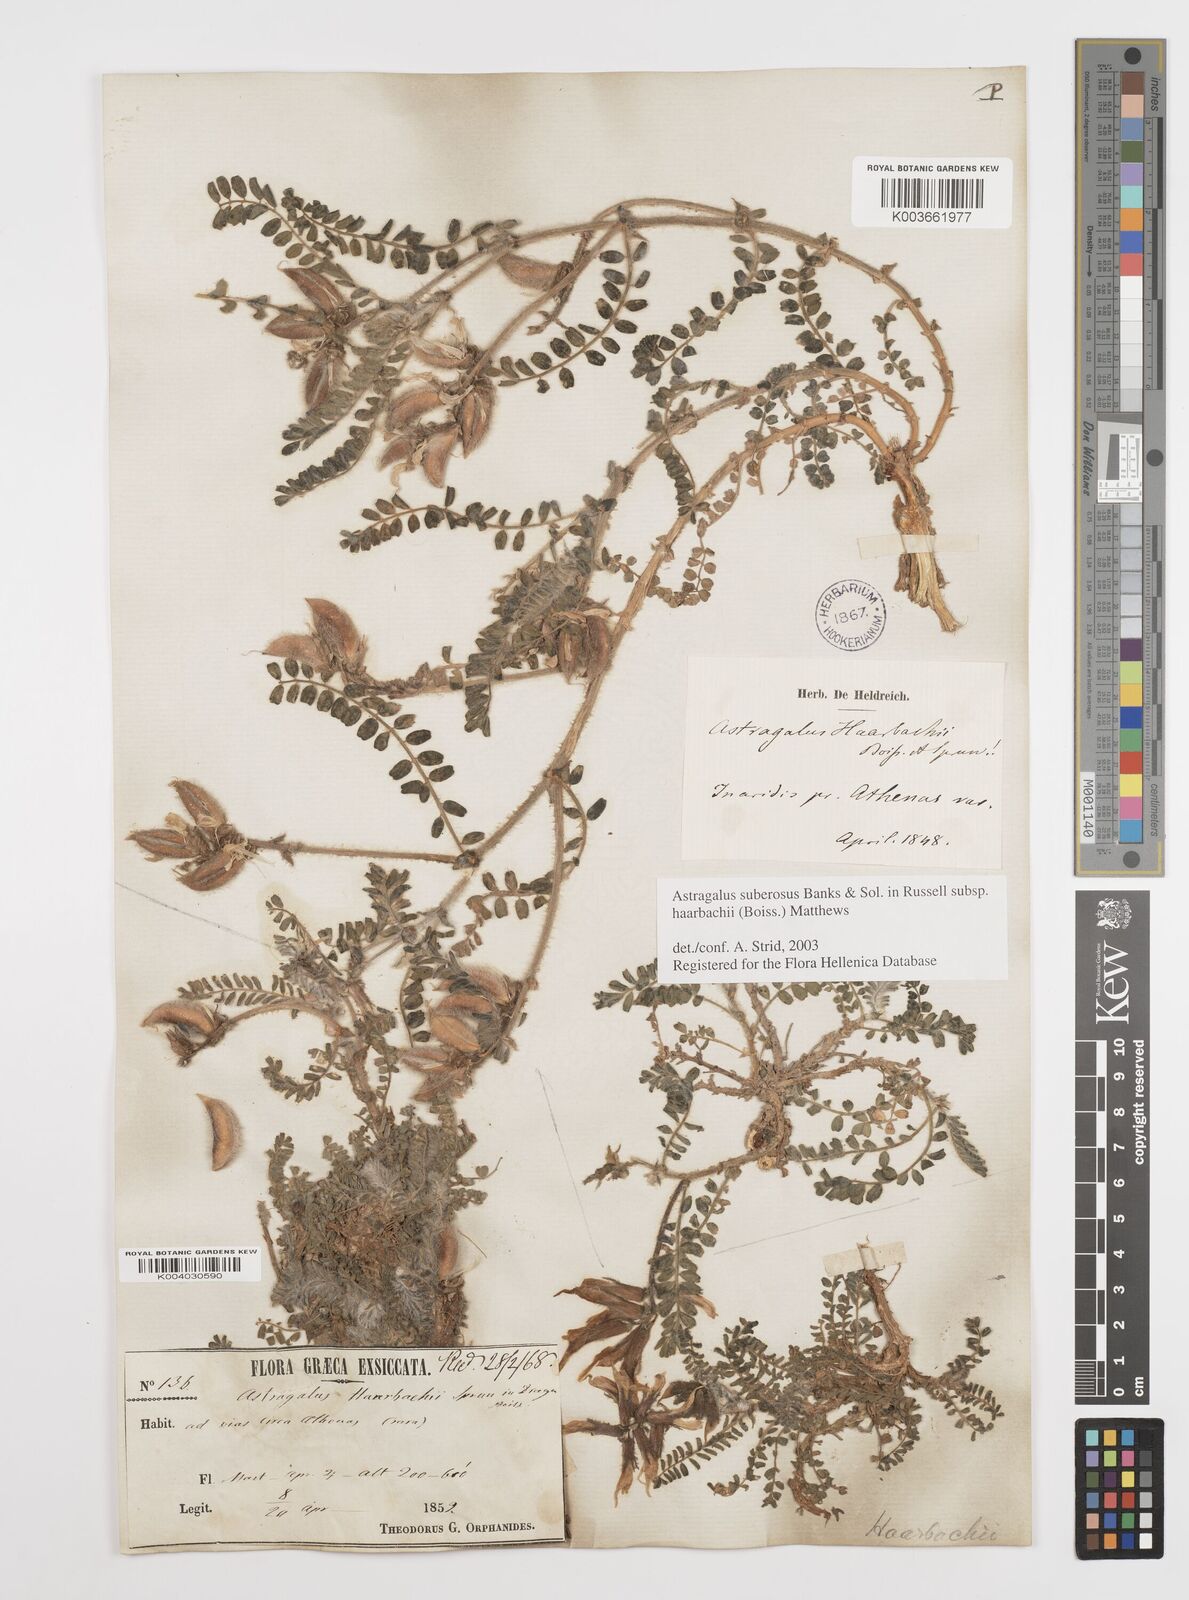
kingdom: Plantae
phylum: Tracheophyta
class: Magnoliopsida
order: Fabales
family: Fabaceae
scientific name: Fabaceae
